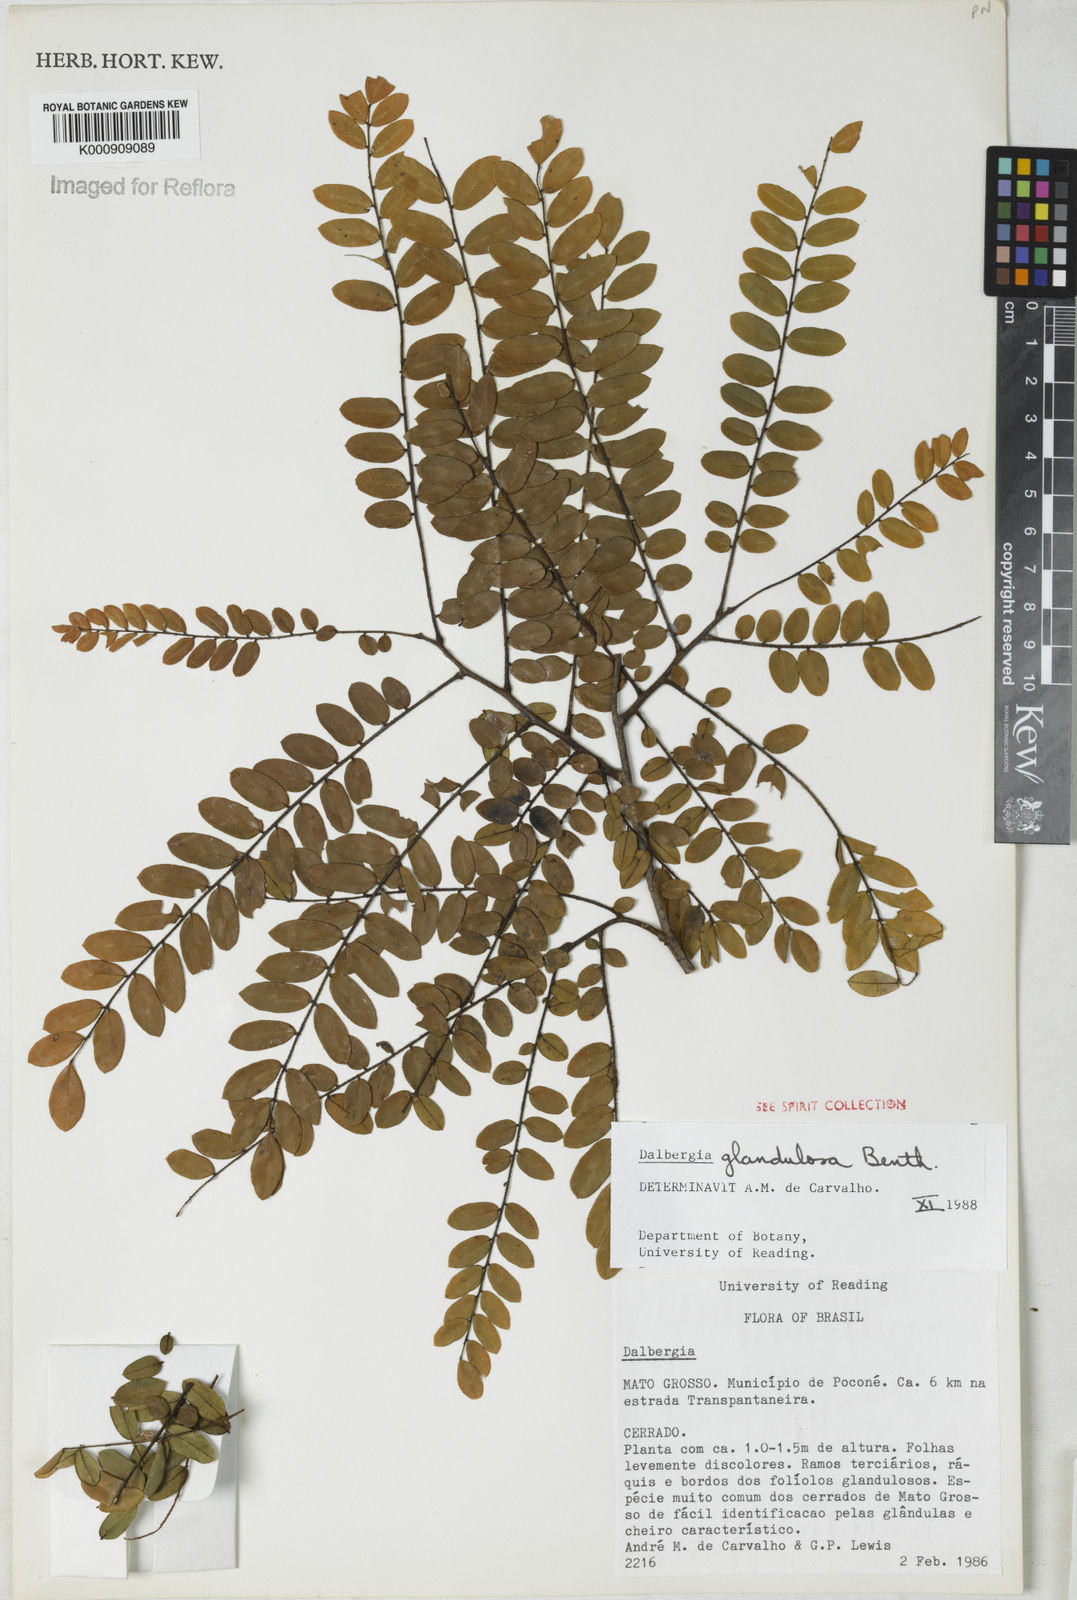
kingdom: Plantae
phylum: Tracheophyta
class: Magnoliopsida
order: Fabales
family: Fabaceae
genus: Dalbergia
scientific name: Dalbergia glandulosa
